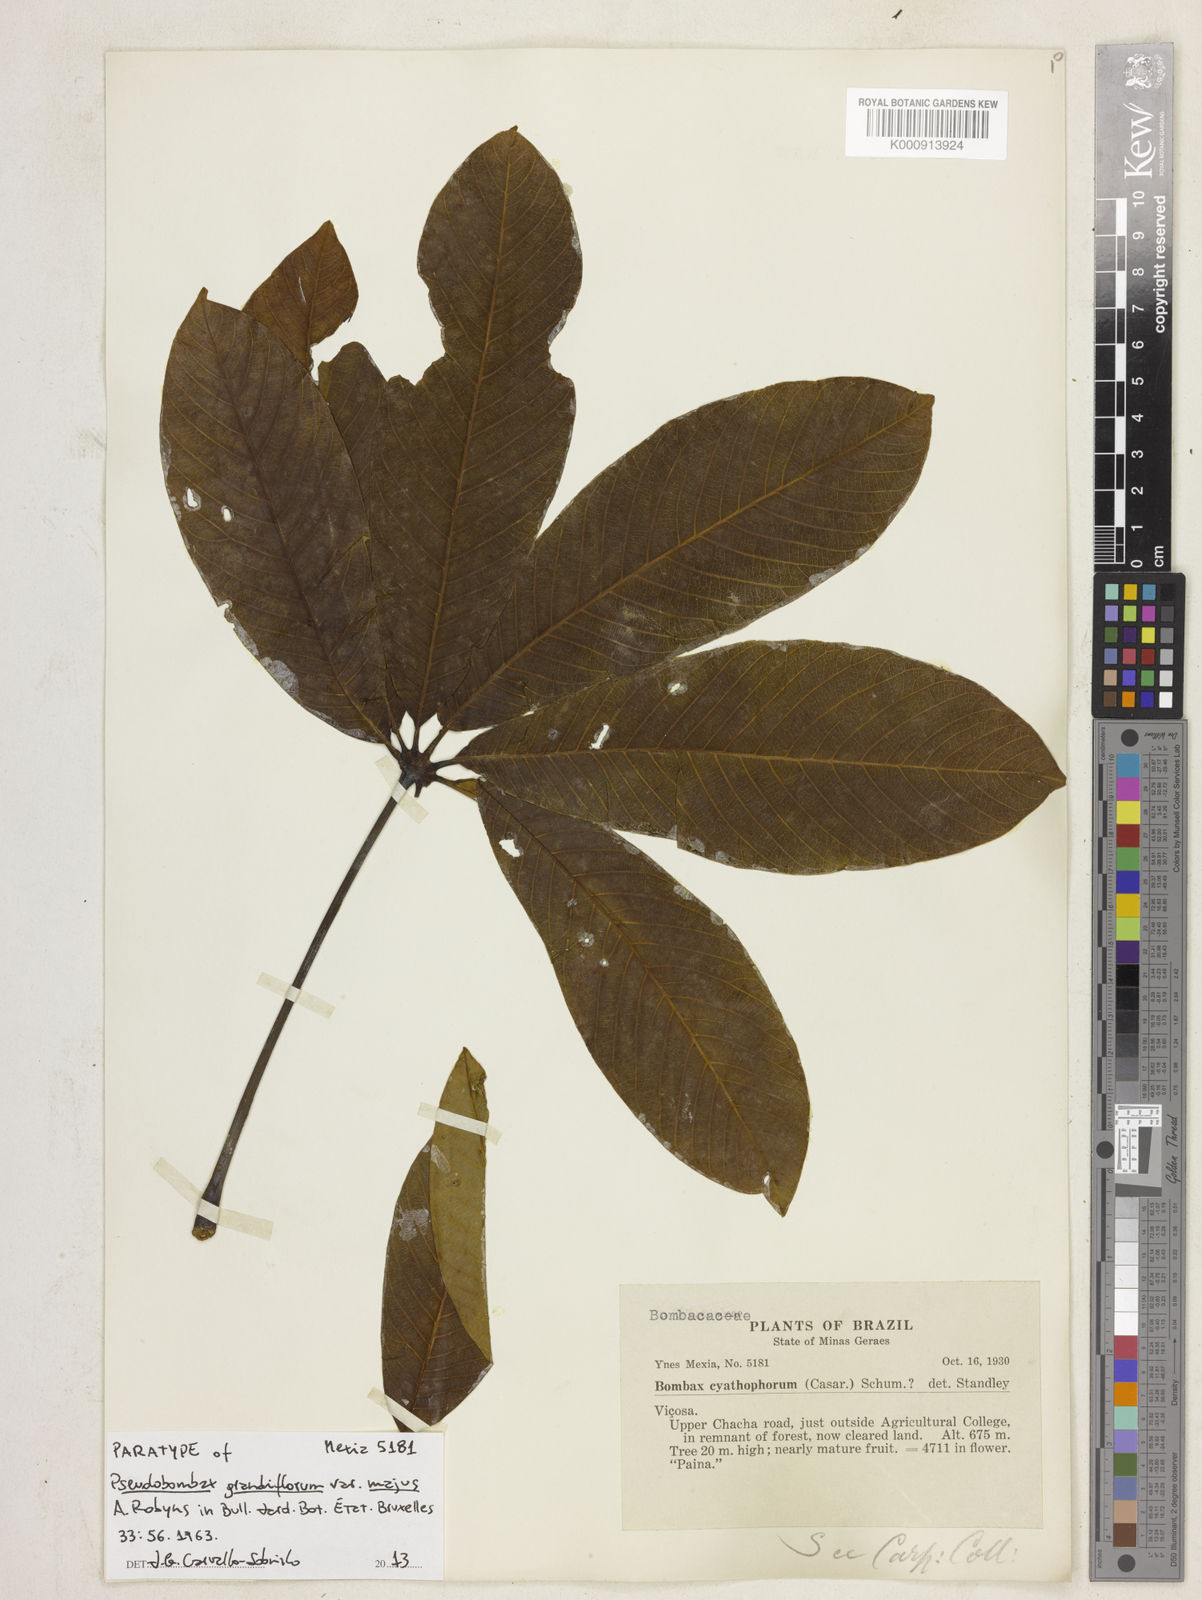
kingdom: Plantae
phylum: Tracheophyta
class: Magnoliopsida
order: Malvales
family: Malvaceae
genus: Pseudobombax
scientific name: Pseudobombax grandiflorum
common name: Brazilian shaving-brush-tree
